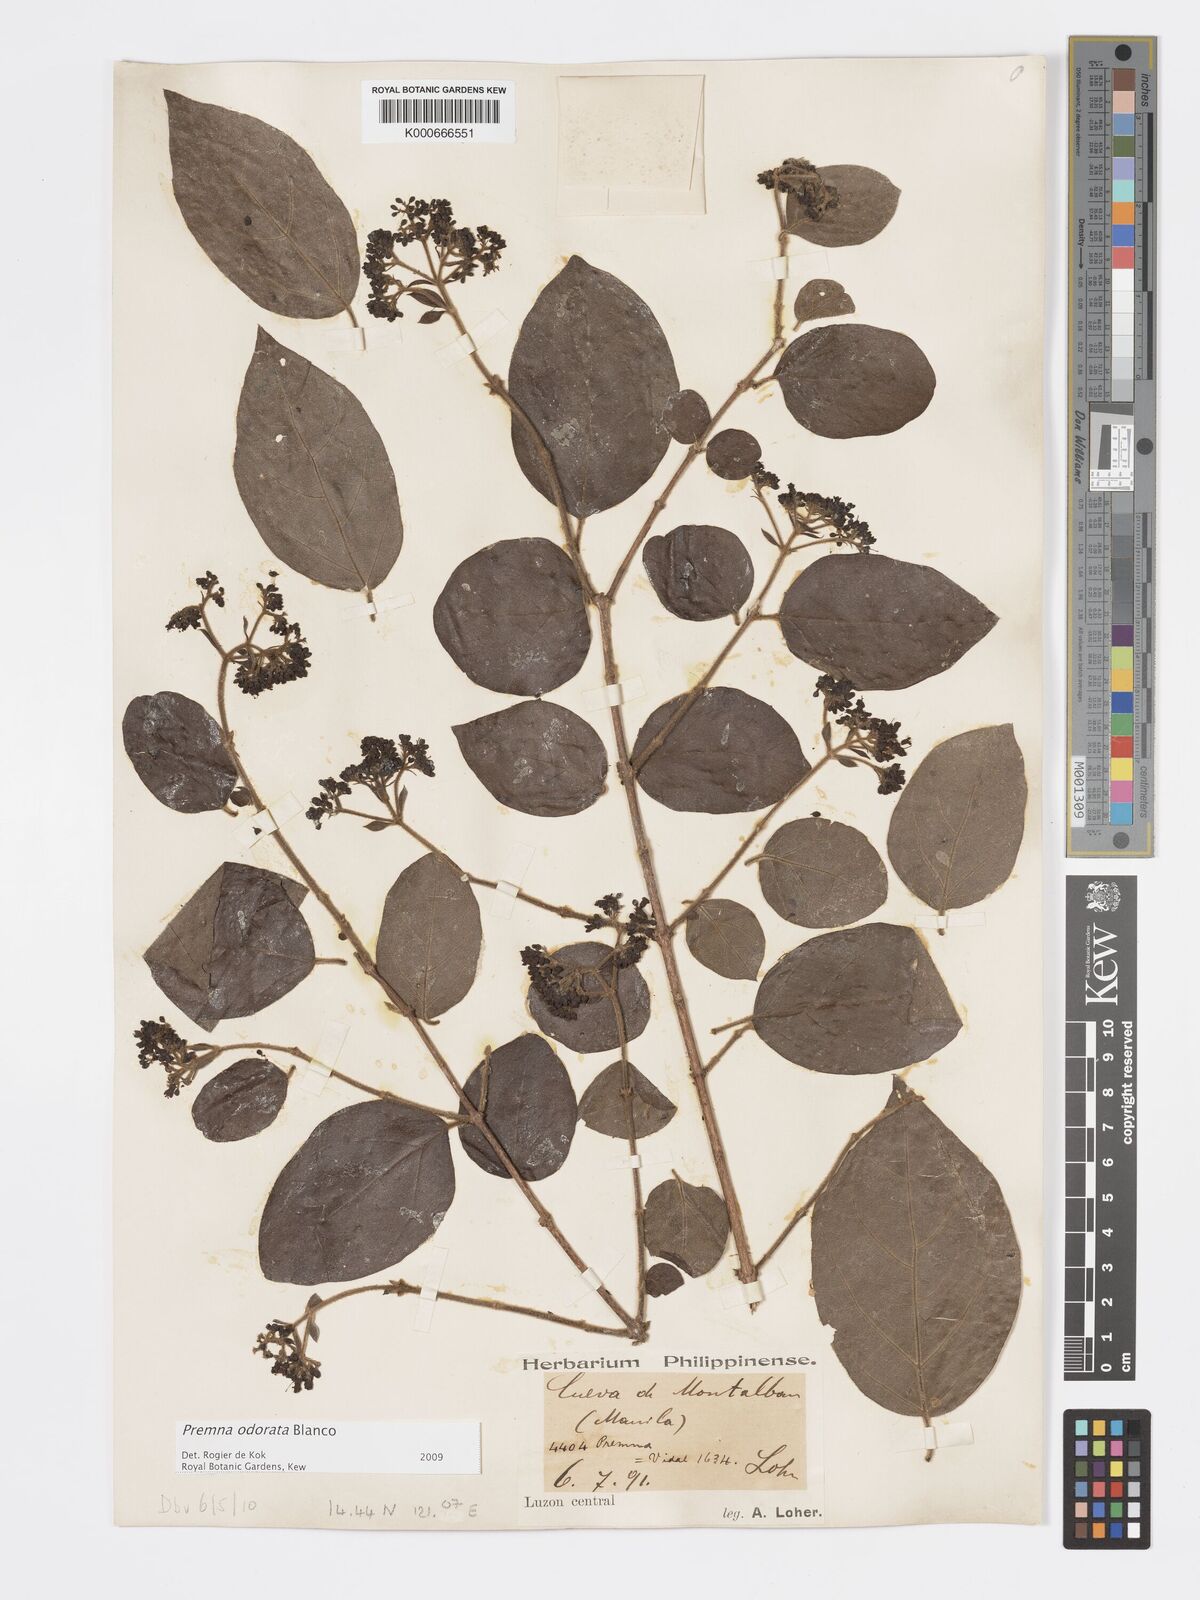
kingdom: Plantae
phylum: Tracheophyta
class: Magnoliopsida
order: Lamiales
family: Lamiaceae
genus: Premna
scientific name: Premna odorata
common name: Fragrant premna
